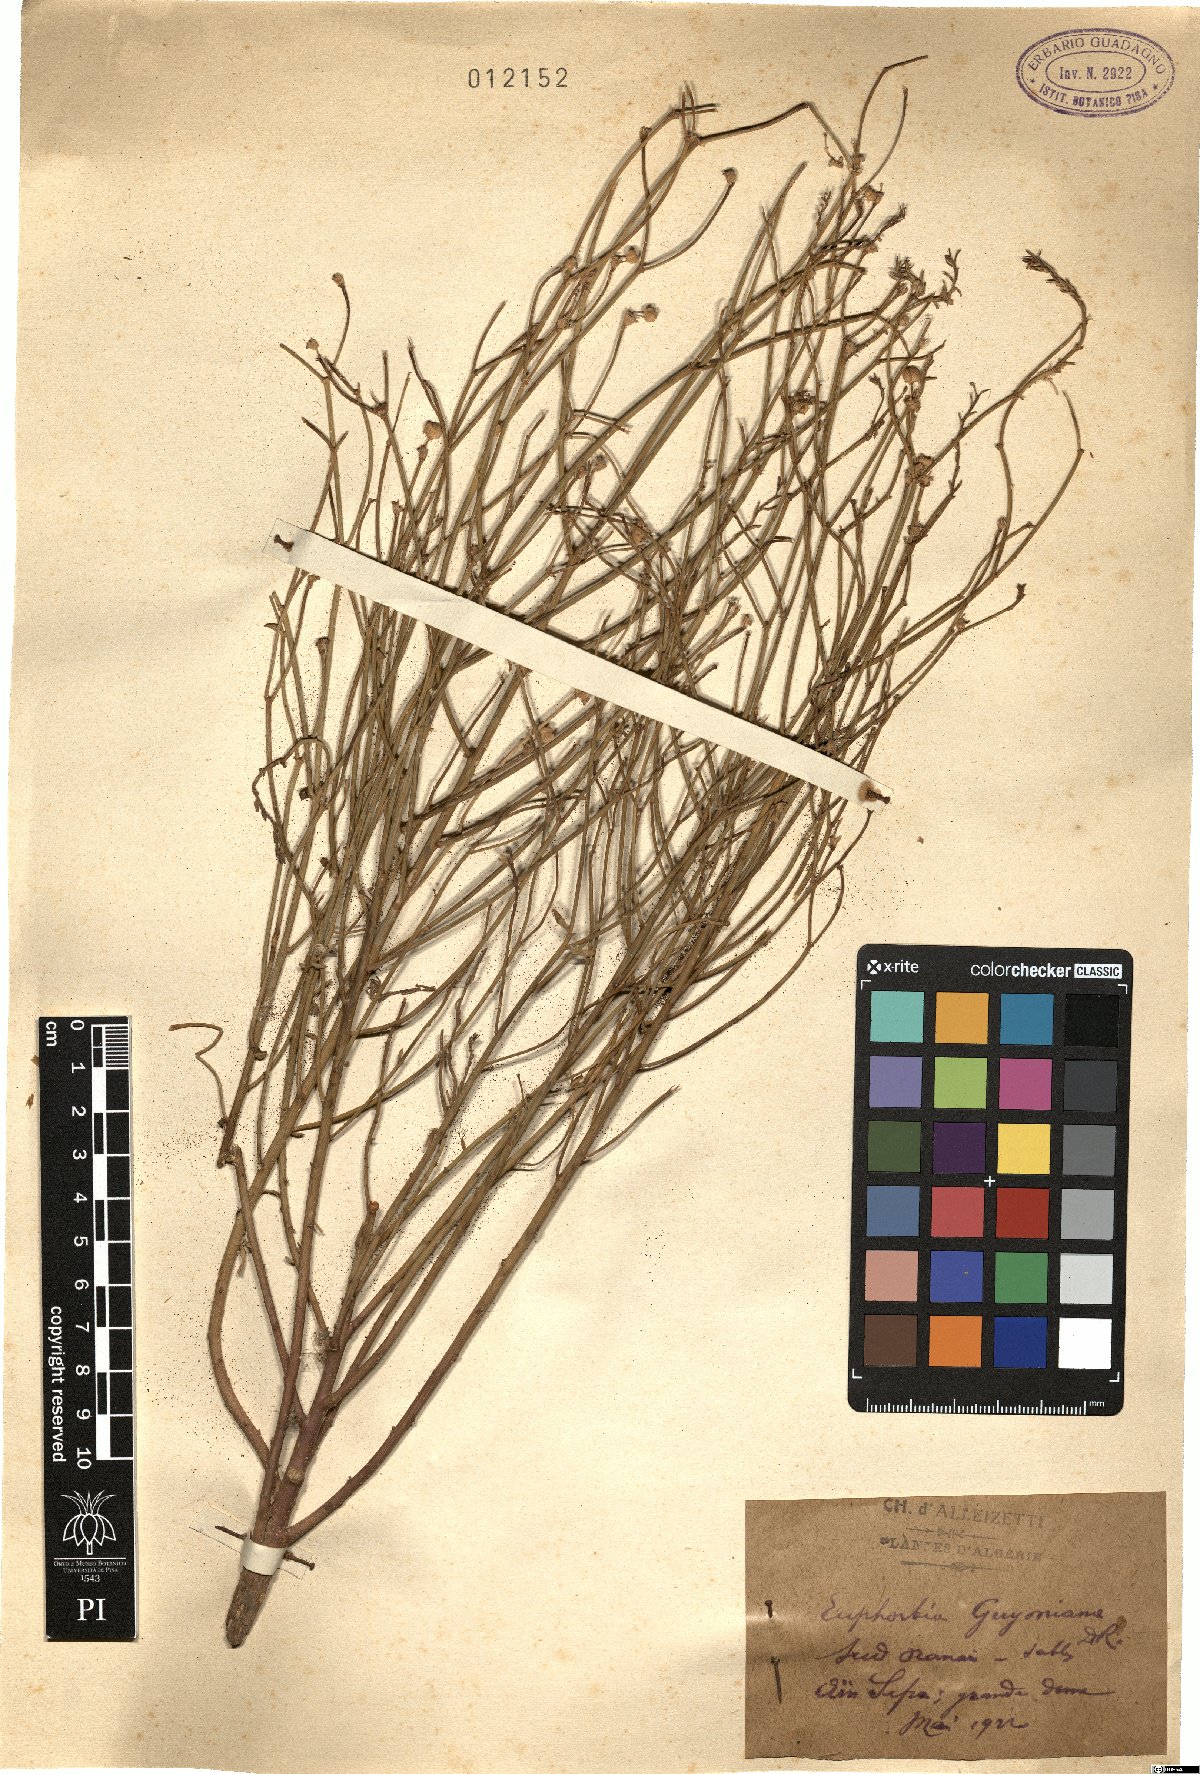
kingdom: Plantae
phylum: Tracheophyta
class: Magnoliopsida
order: Malpighiales
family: Euphorbiaceae
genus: Euphorbia
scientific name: Euphorbia guyoniana
